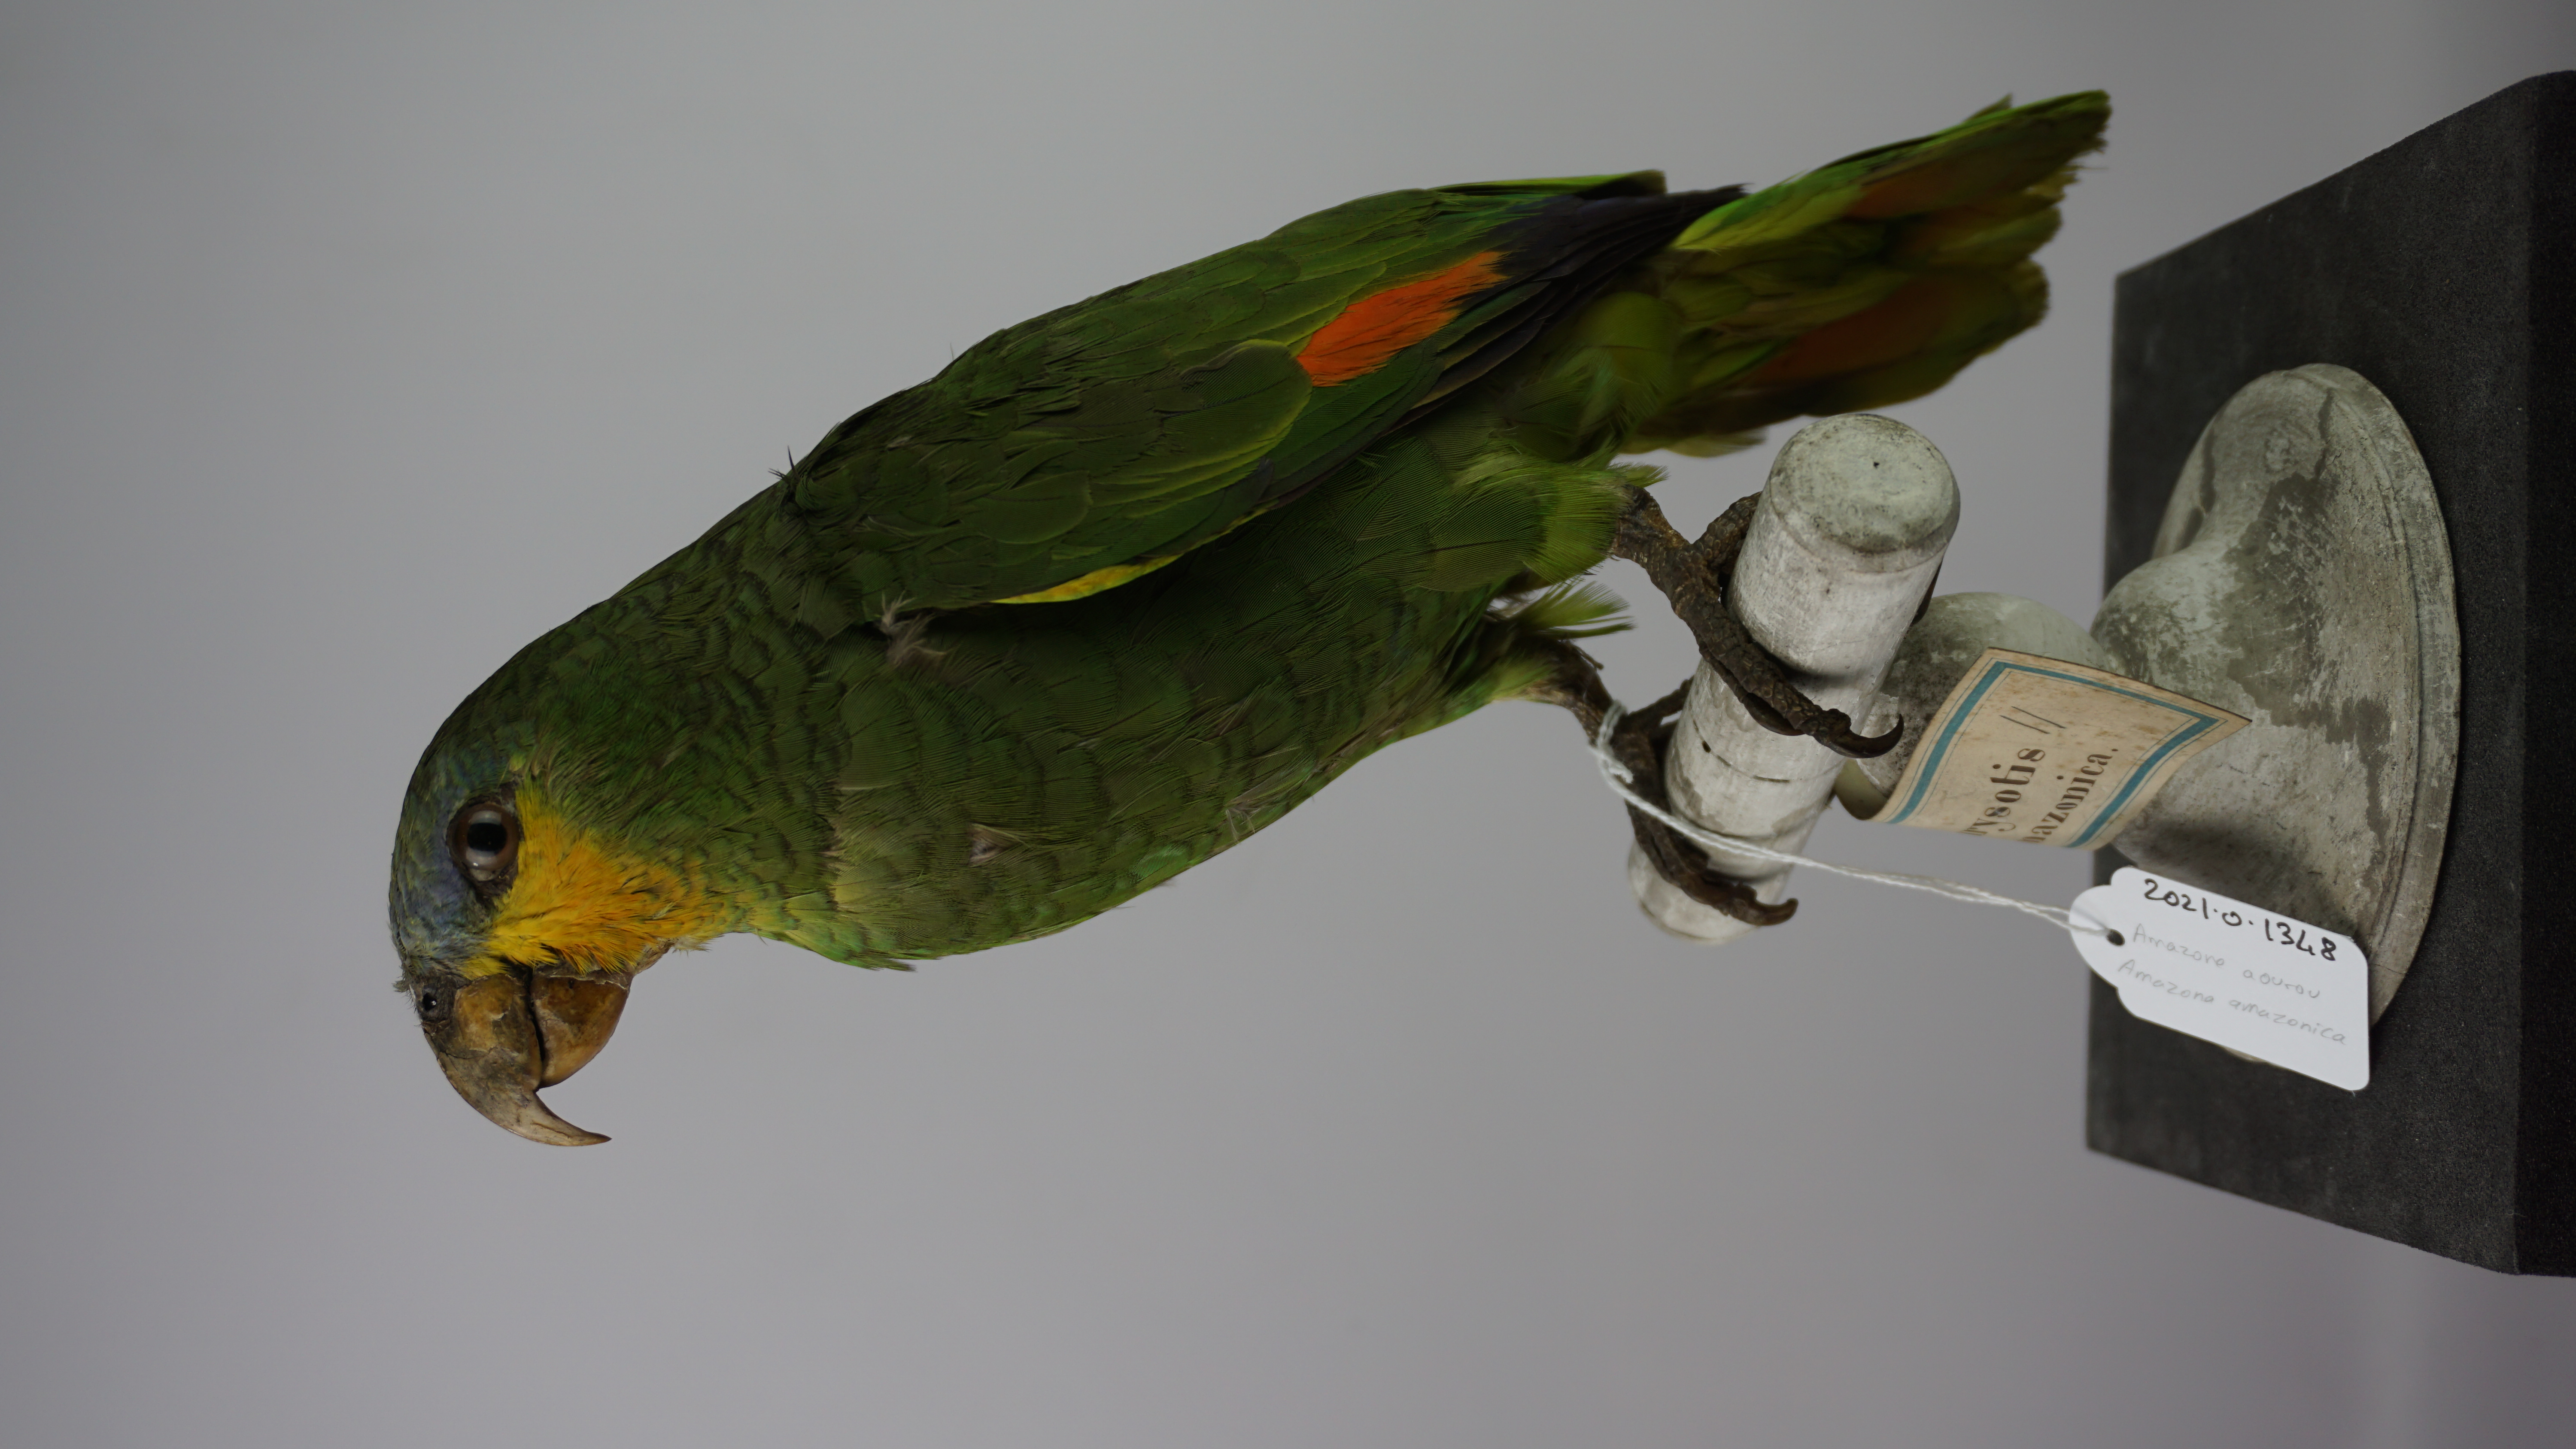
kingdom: Animalia
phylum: Chordata
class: Aves
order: Psittaciformes
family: Psittacidae
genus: Amazona
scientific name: Amazona amazonica
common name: Orange-winged amazon
